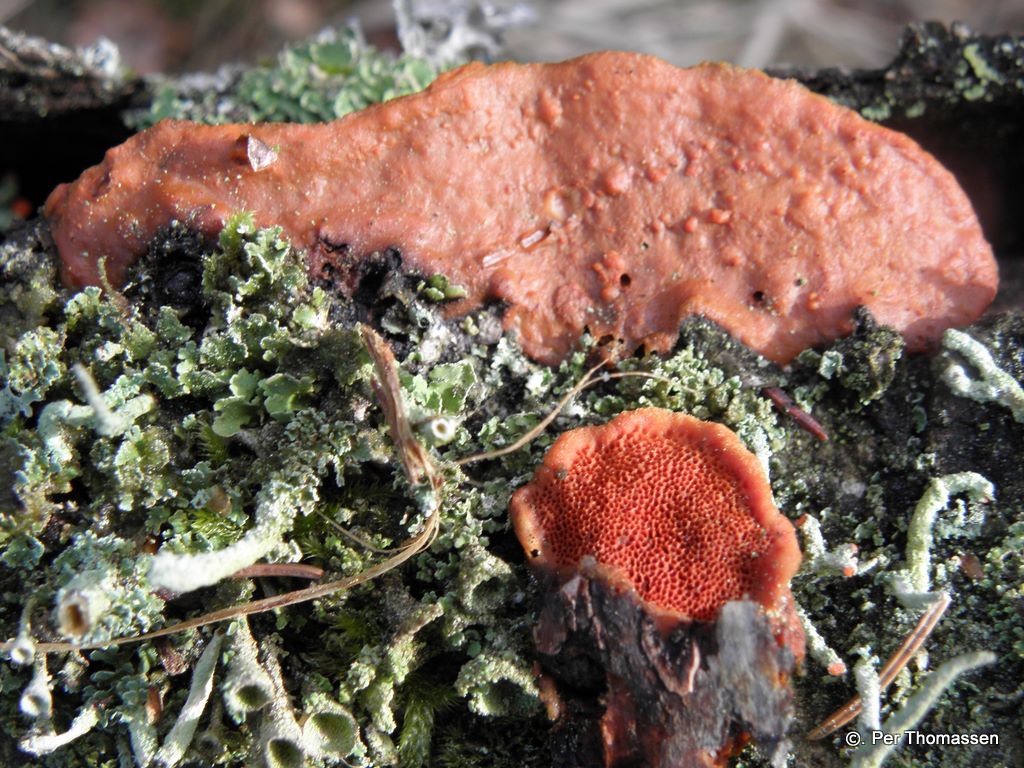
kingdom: Fungi
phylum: Basidiomycota
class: Agaricomycetes
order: Polyporales
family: Polyporaceae
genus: Trametes
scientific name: Trametes cinnabarina
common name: cinnoberporesvamp
